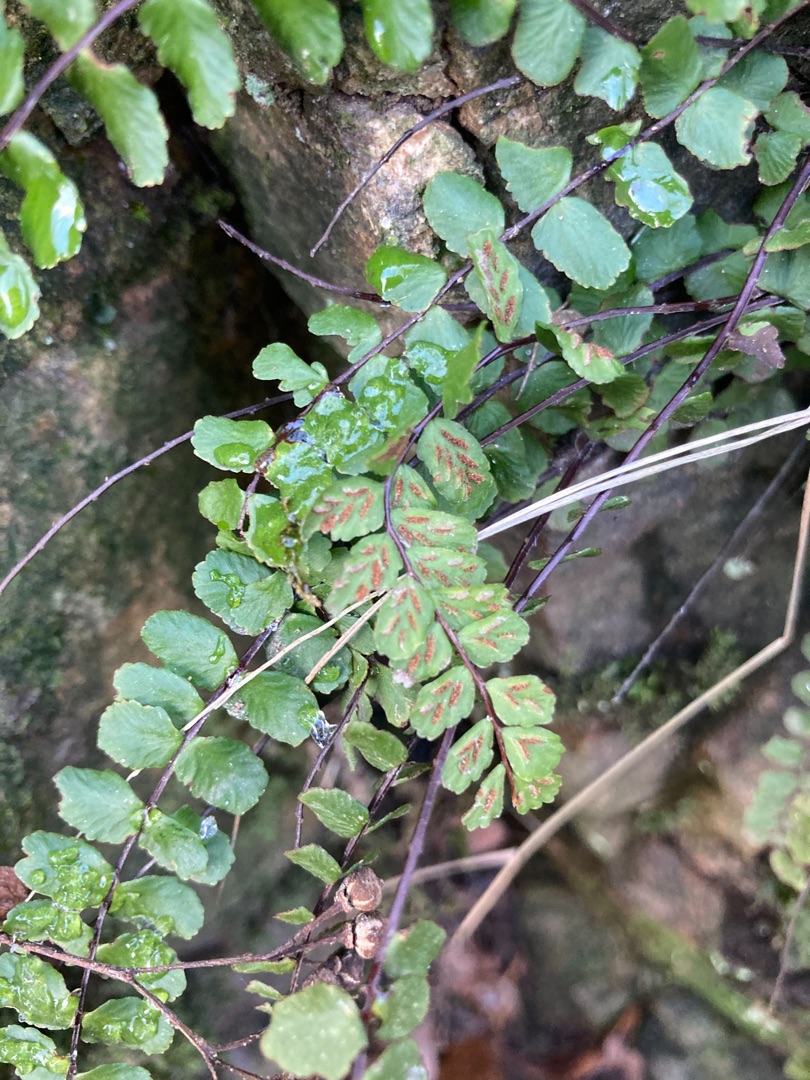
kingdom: Plantae
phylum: Tracheophyta
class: Polypodiopsida
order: Polypodiales
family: Aspleniaceae
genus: Asplenium
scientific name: Asplenium trichomanes
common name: Rundfinnet radeløv
